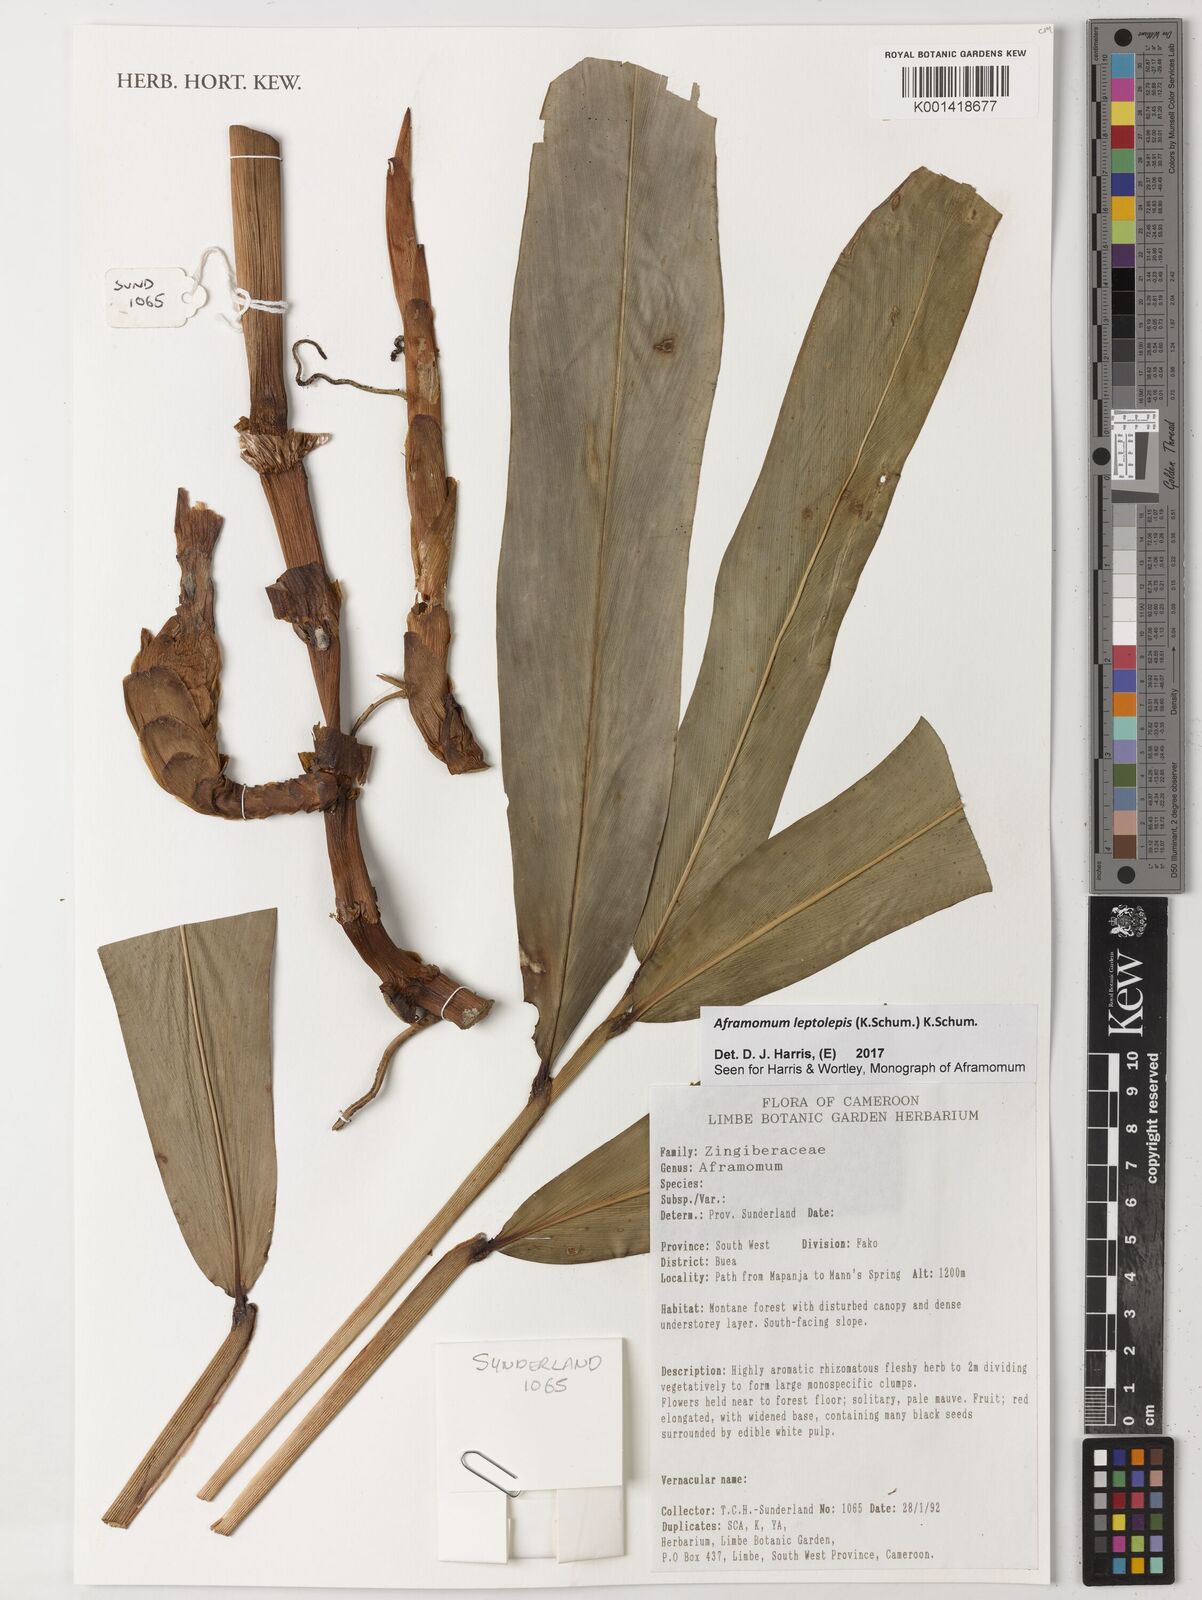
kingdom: Plantae
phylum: Tracheophyta
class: Liliopsida
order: Zingiberales
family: Zingiberaceae
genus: Aframomum
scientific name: Aframomum leptolepis
